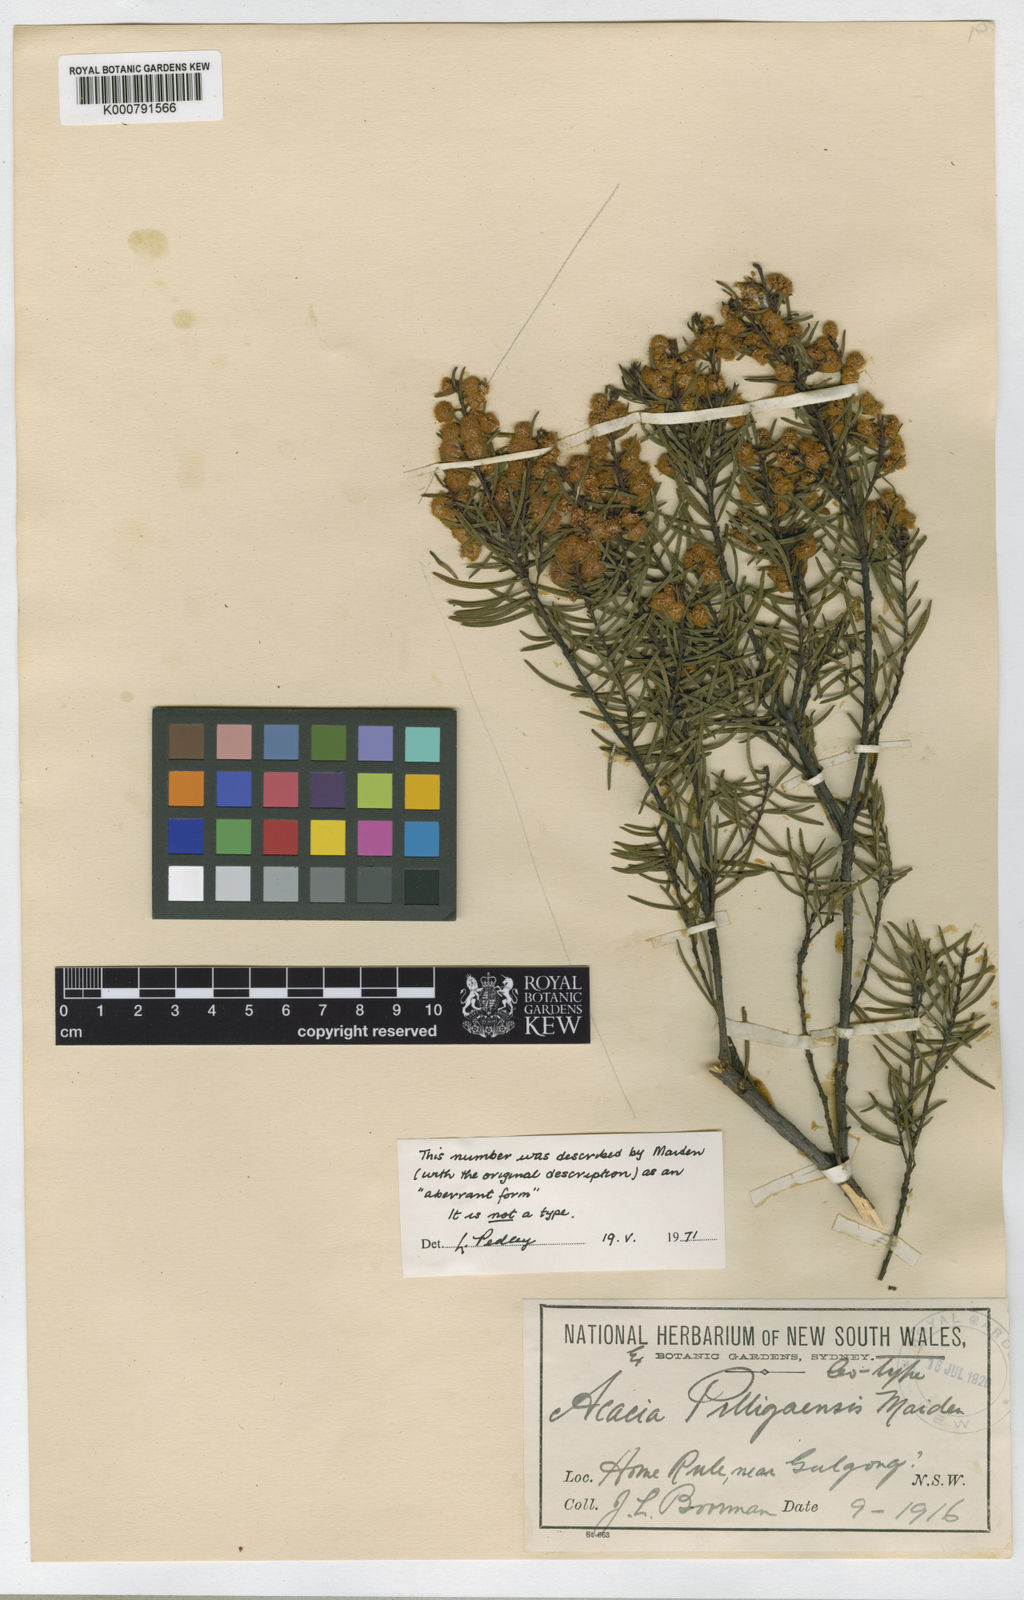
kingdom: Plantae
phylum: Tracheophyta
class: Magnoliopsida
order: Fabales
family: Fabaceae
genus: Acacia
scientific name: Acacia pilligaensis
